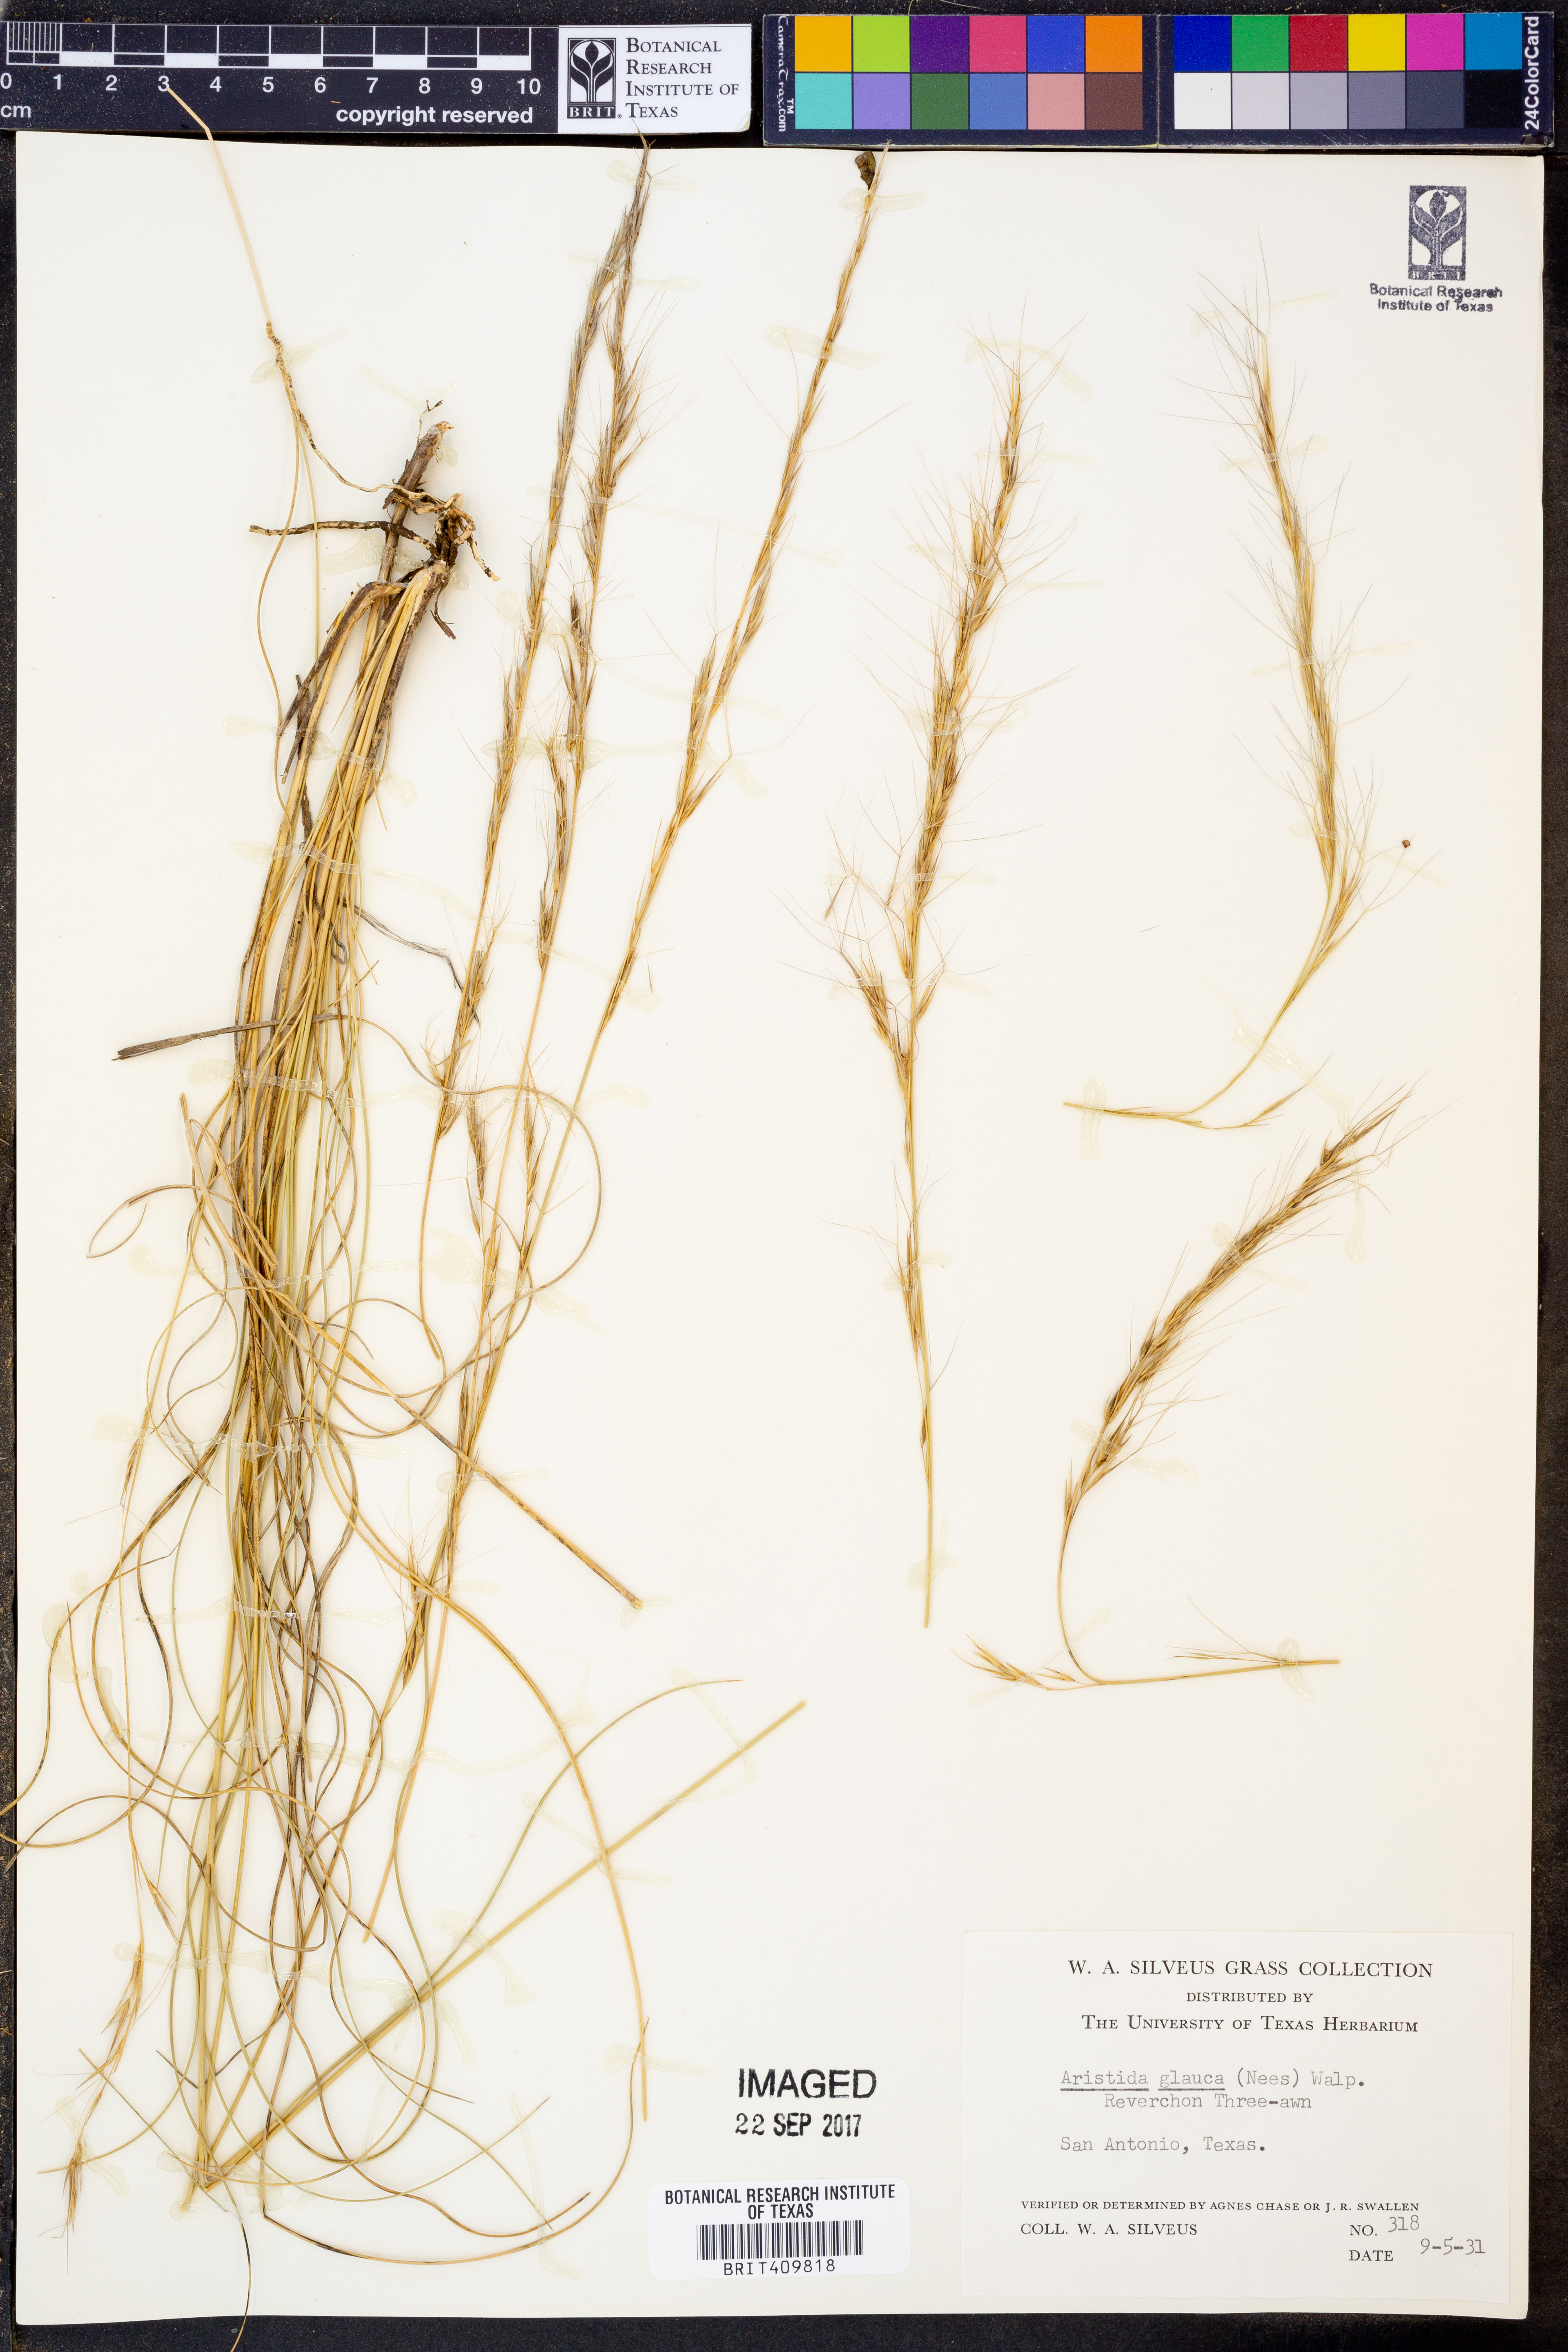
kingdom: Plantae
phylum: Tracheophyta
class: Liliopsida
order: Poales
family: Poaceae
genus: Aristida
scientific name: Aristida glauca
